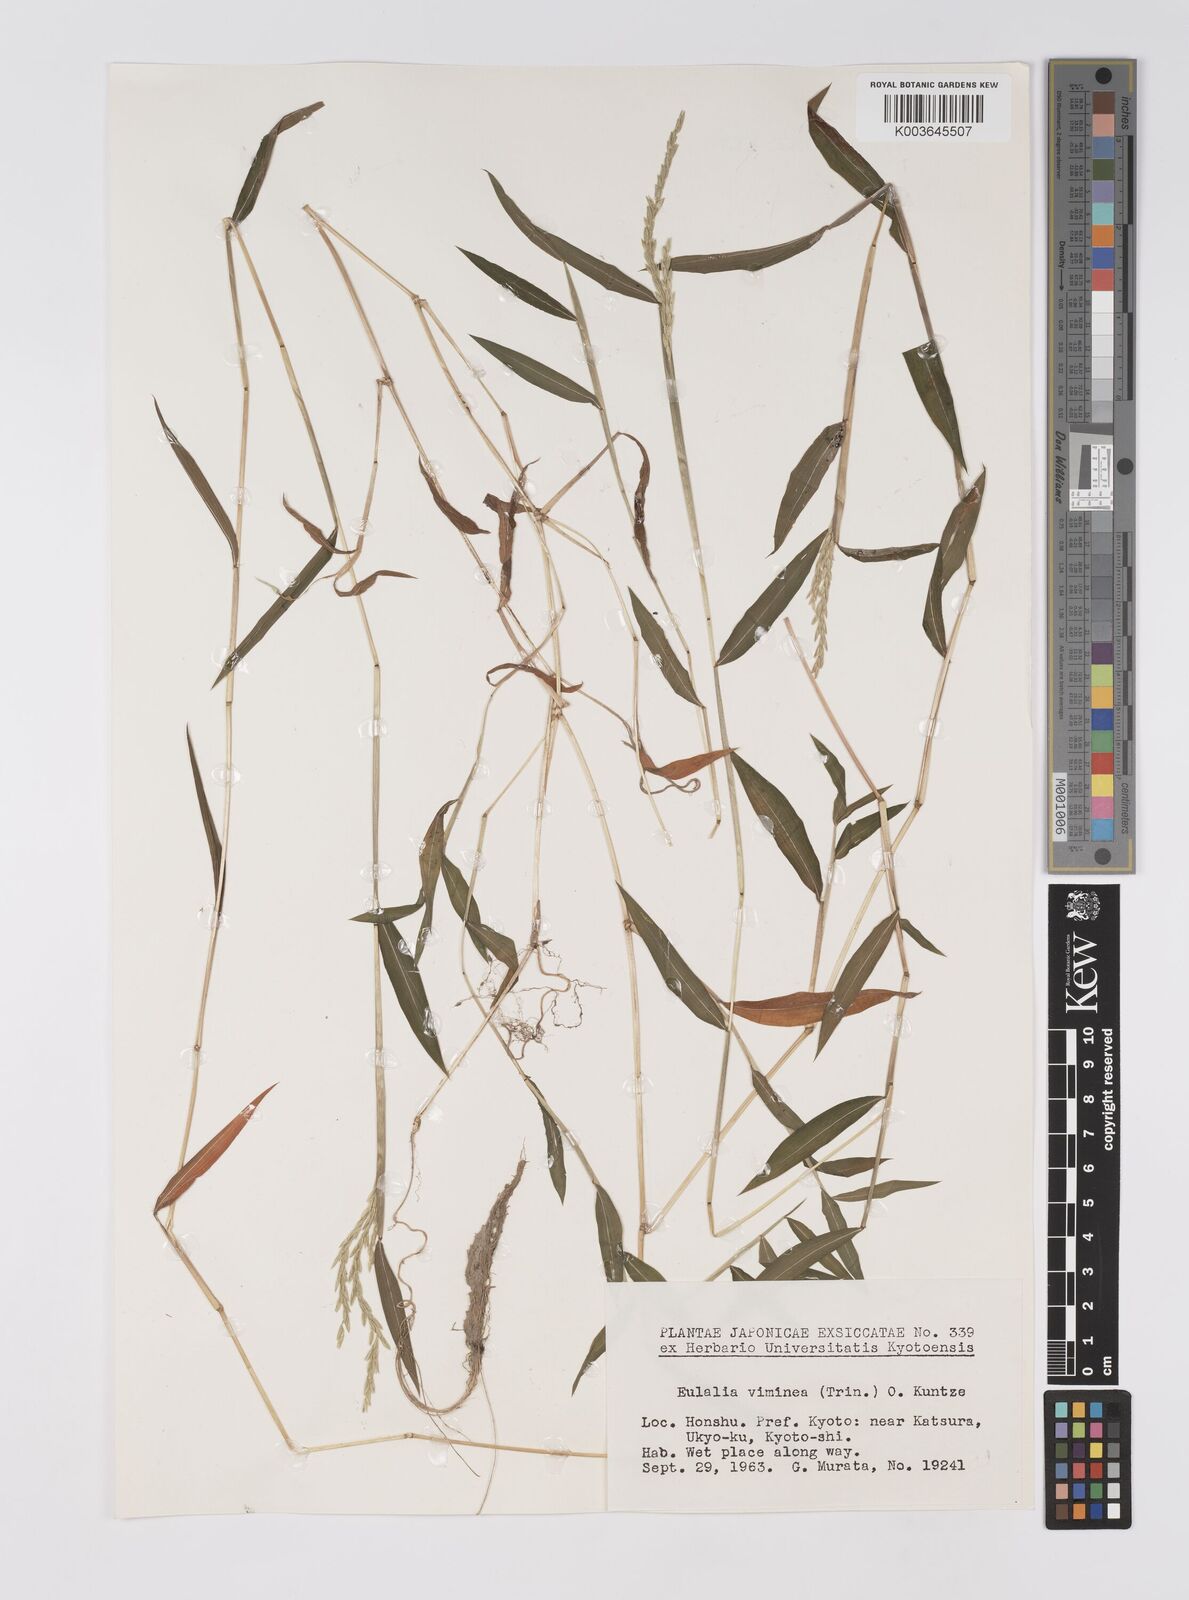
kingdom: Plantae
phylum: Tracheophyta
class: Liliopsida
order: Poales
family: Poaceae
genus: Microstegium
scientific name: Microstegium vimineum
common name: Japanese stiltgrass
